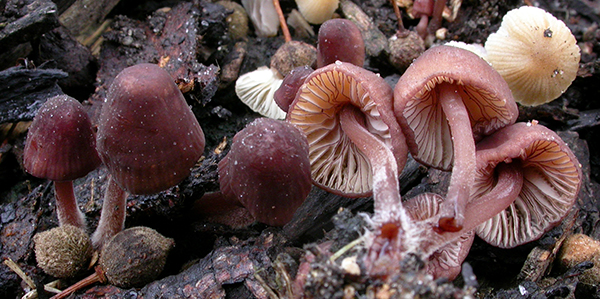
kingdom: Fungi
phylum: Basidiomycota
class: Agaricomycetes
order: Agaricales
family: Mycenaceae
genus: Mycena
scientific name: Mycena sanguinolenta
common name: rødmælket huesvamp
